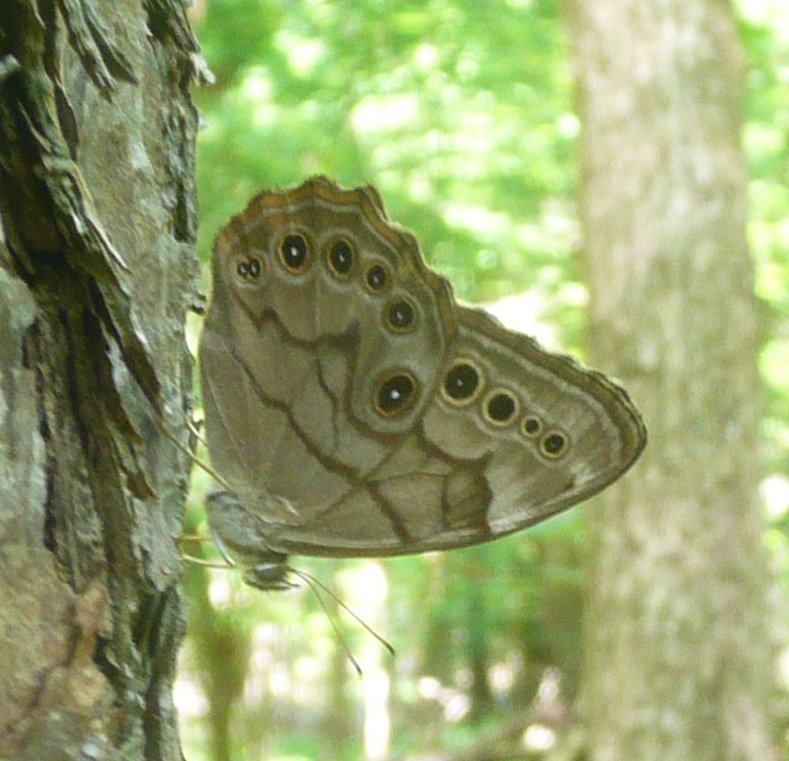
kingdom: Animalia
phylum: Arthropoda
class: Insecta
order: Lepidoptera
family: Nymphalidae
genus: Lethe
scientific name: Lethe anthedon
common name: Northern Pearly-Eye
